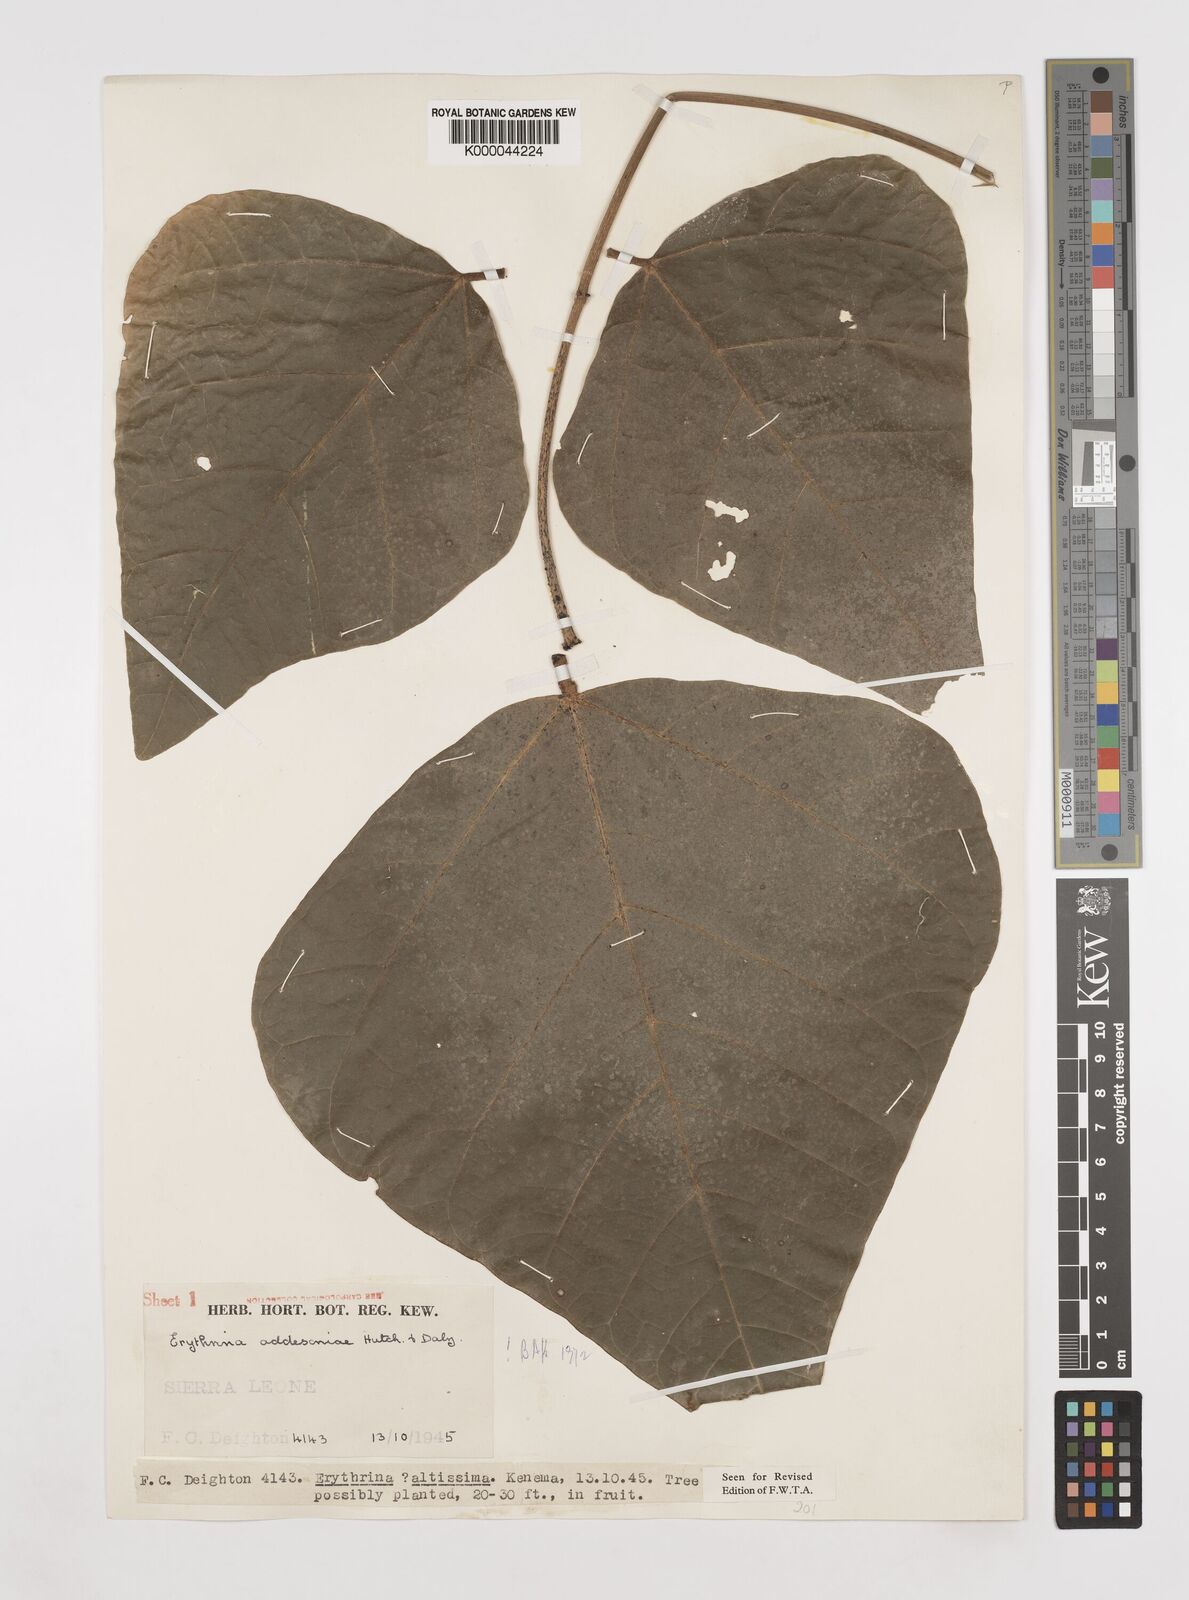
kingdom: Plantae
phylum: Tracheophyta
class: Magnoliopsida
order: Fabales
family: Fabaceae
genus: Erythrina
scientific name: Erythrina addisoniae
